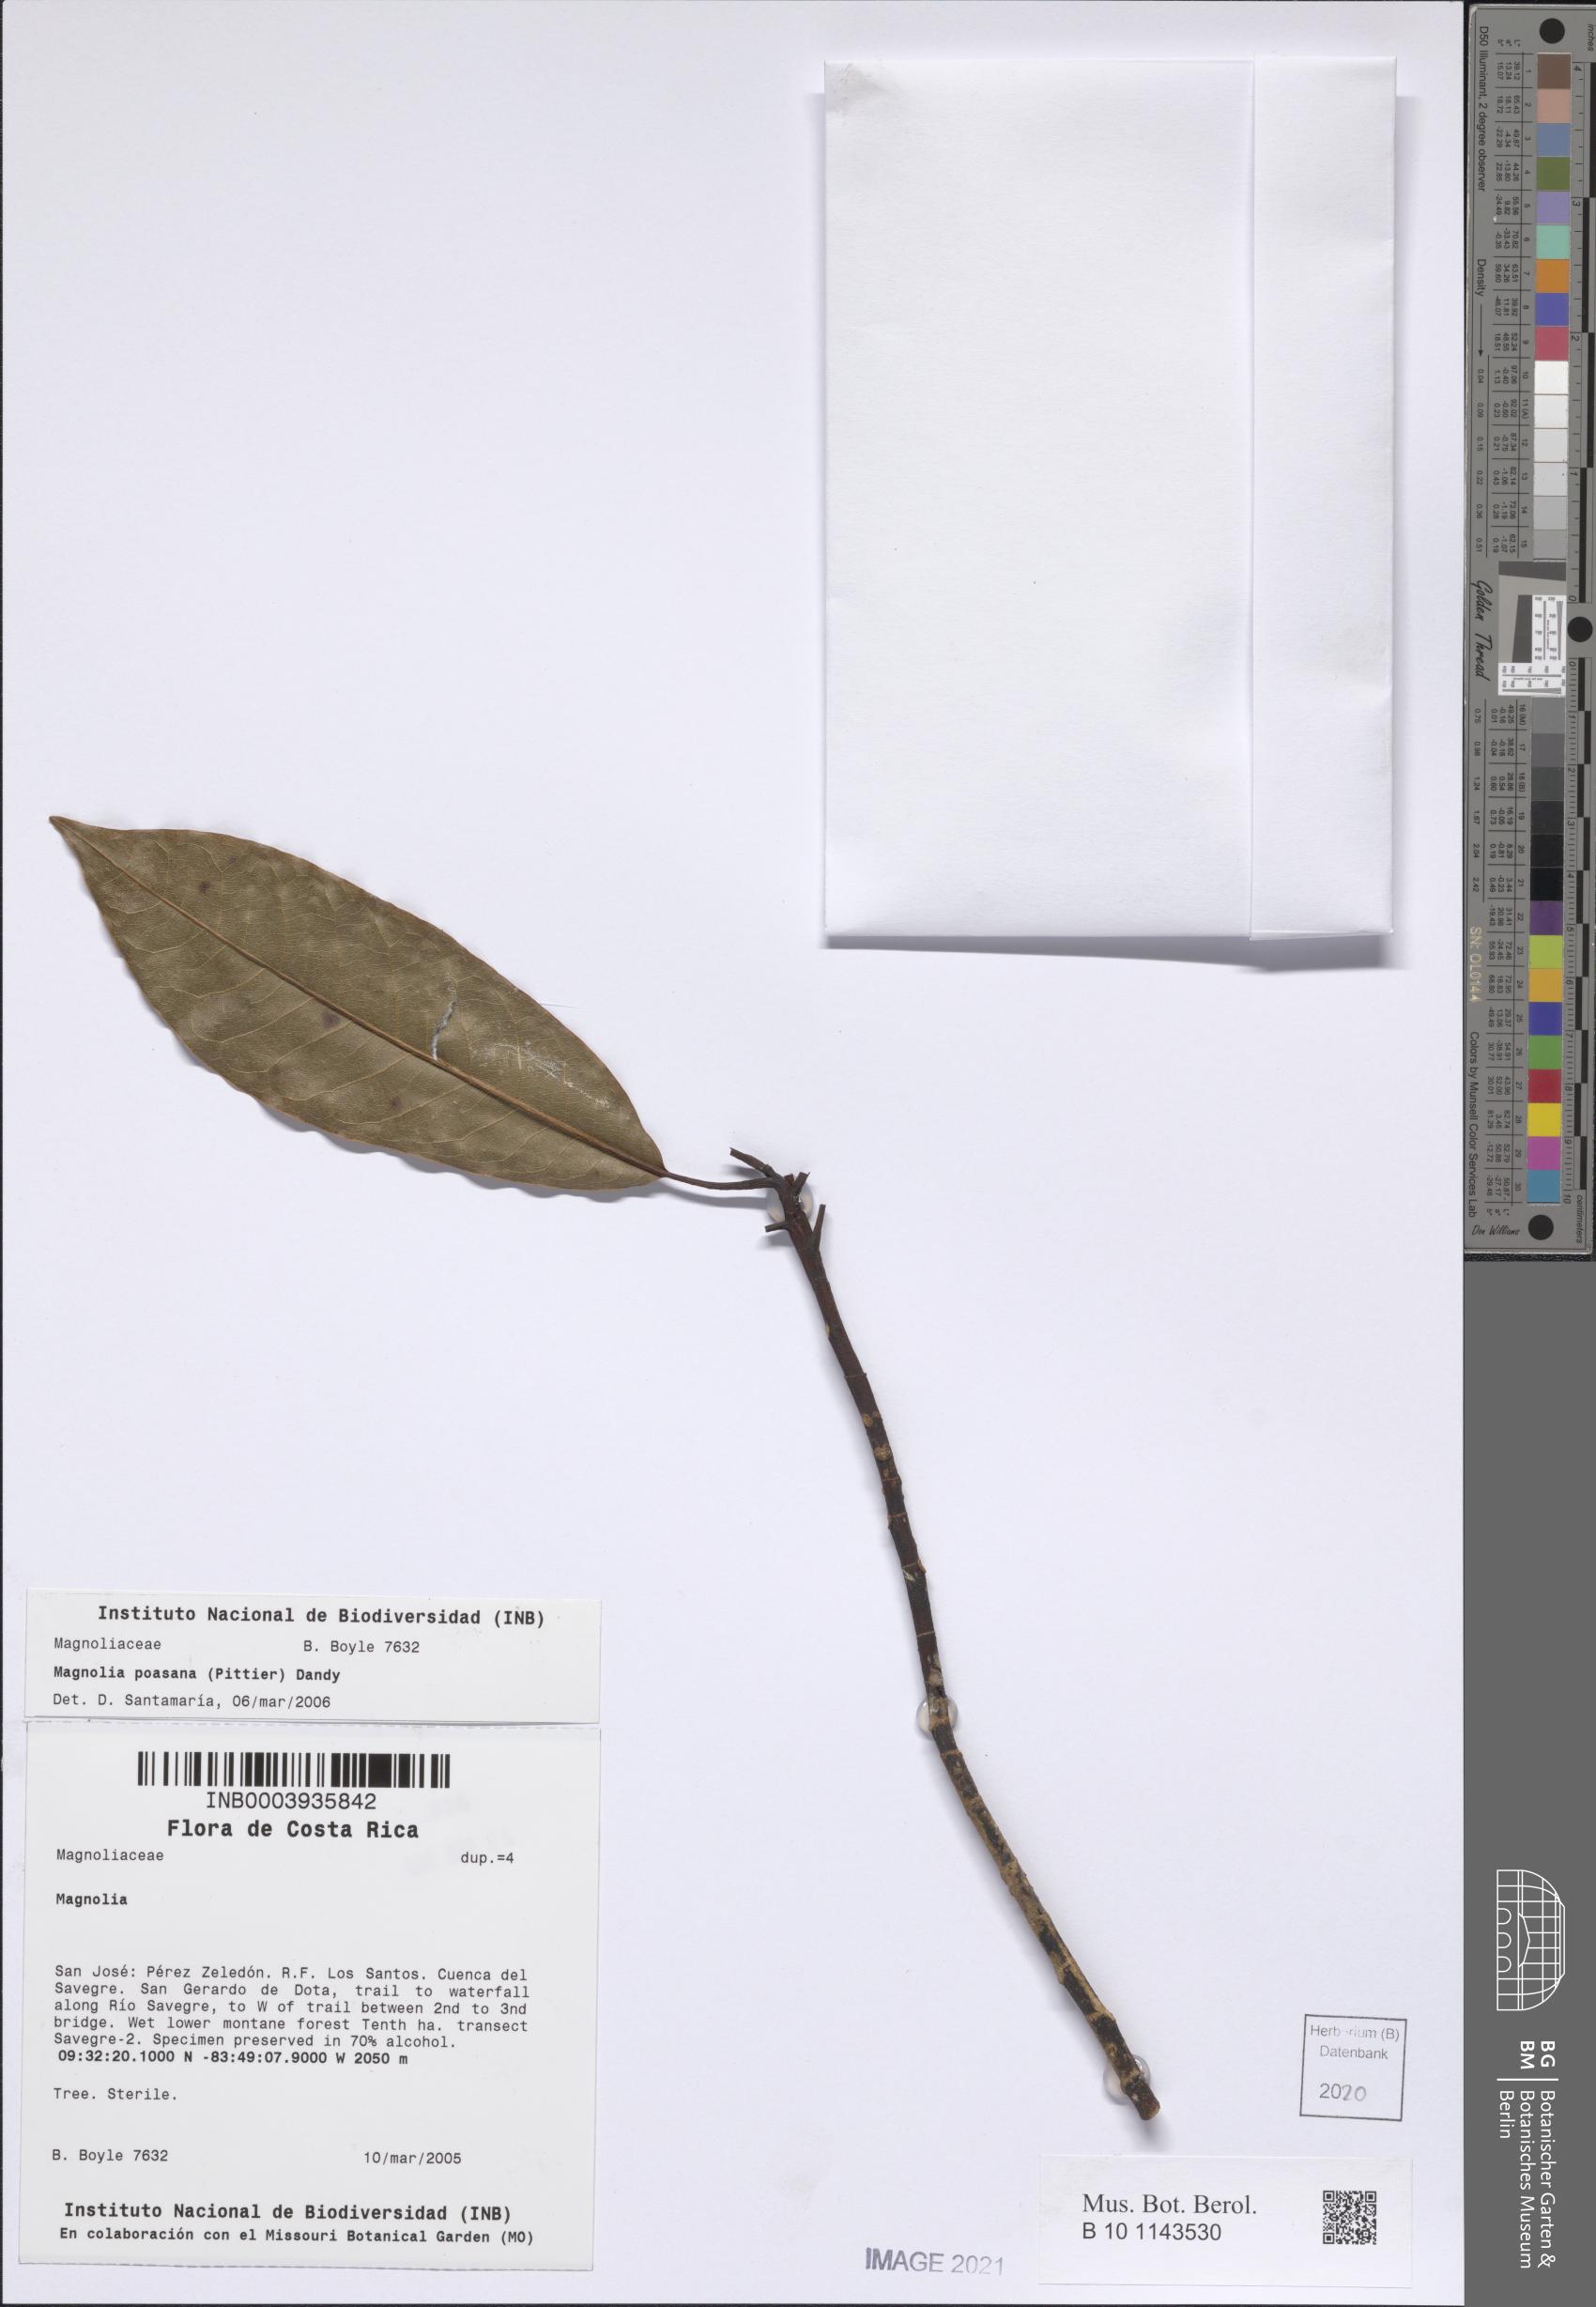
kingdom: Plantae
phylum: Tracheophyta
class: Magnoliopsida
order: Magnoliales
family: Magnoliaceae
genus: Magnolia
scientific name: Magnolia poasana
